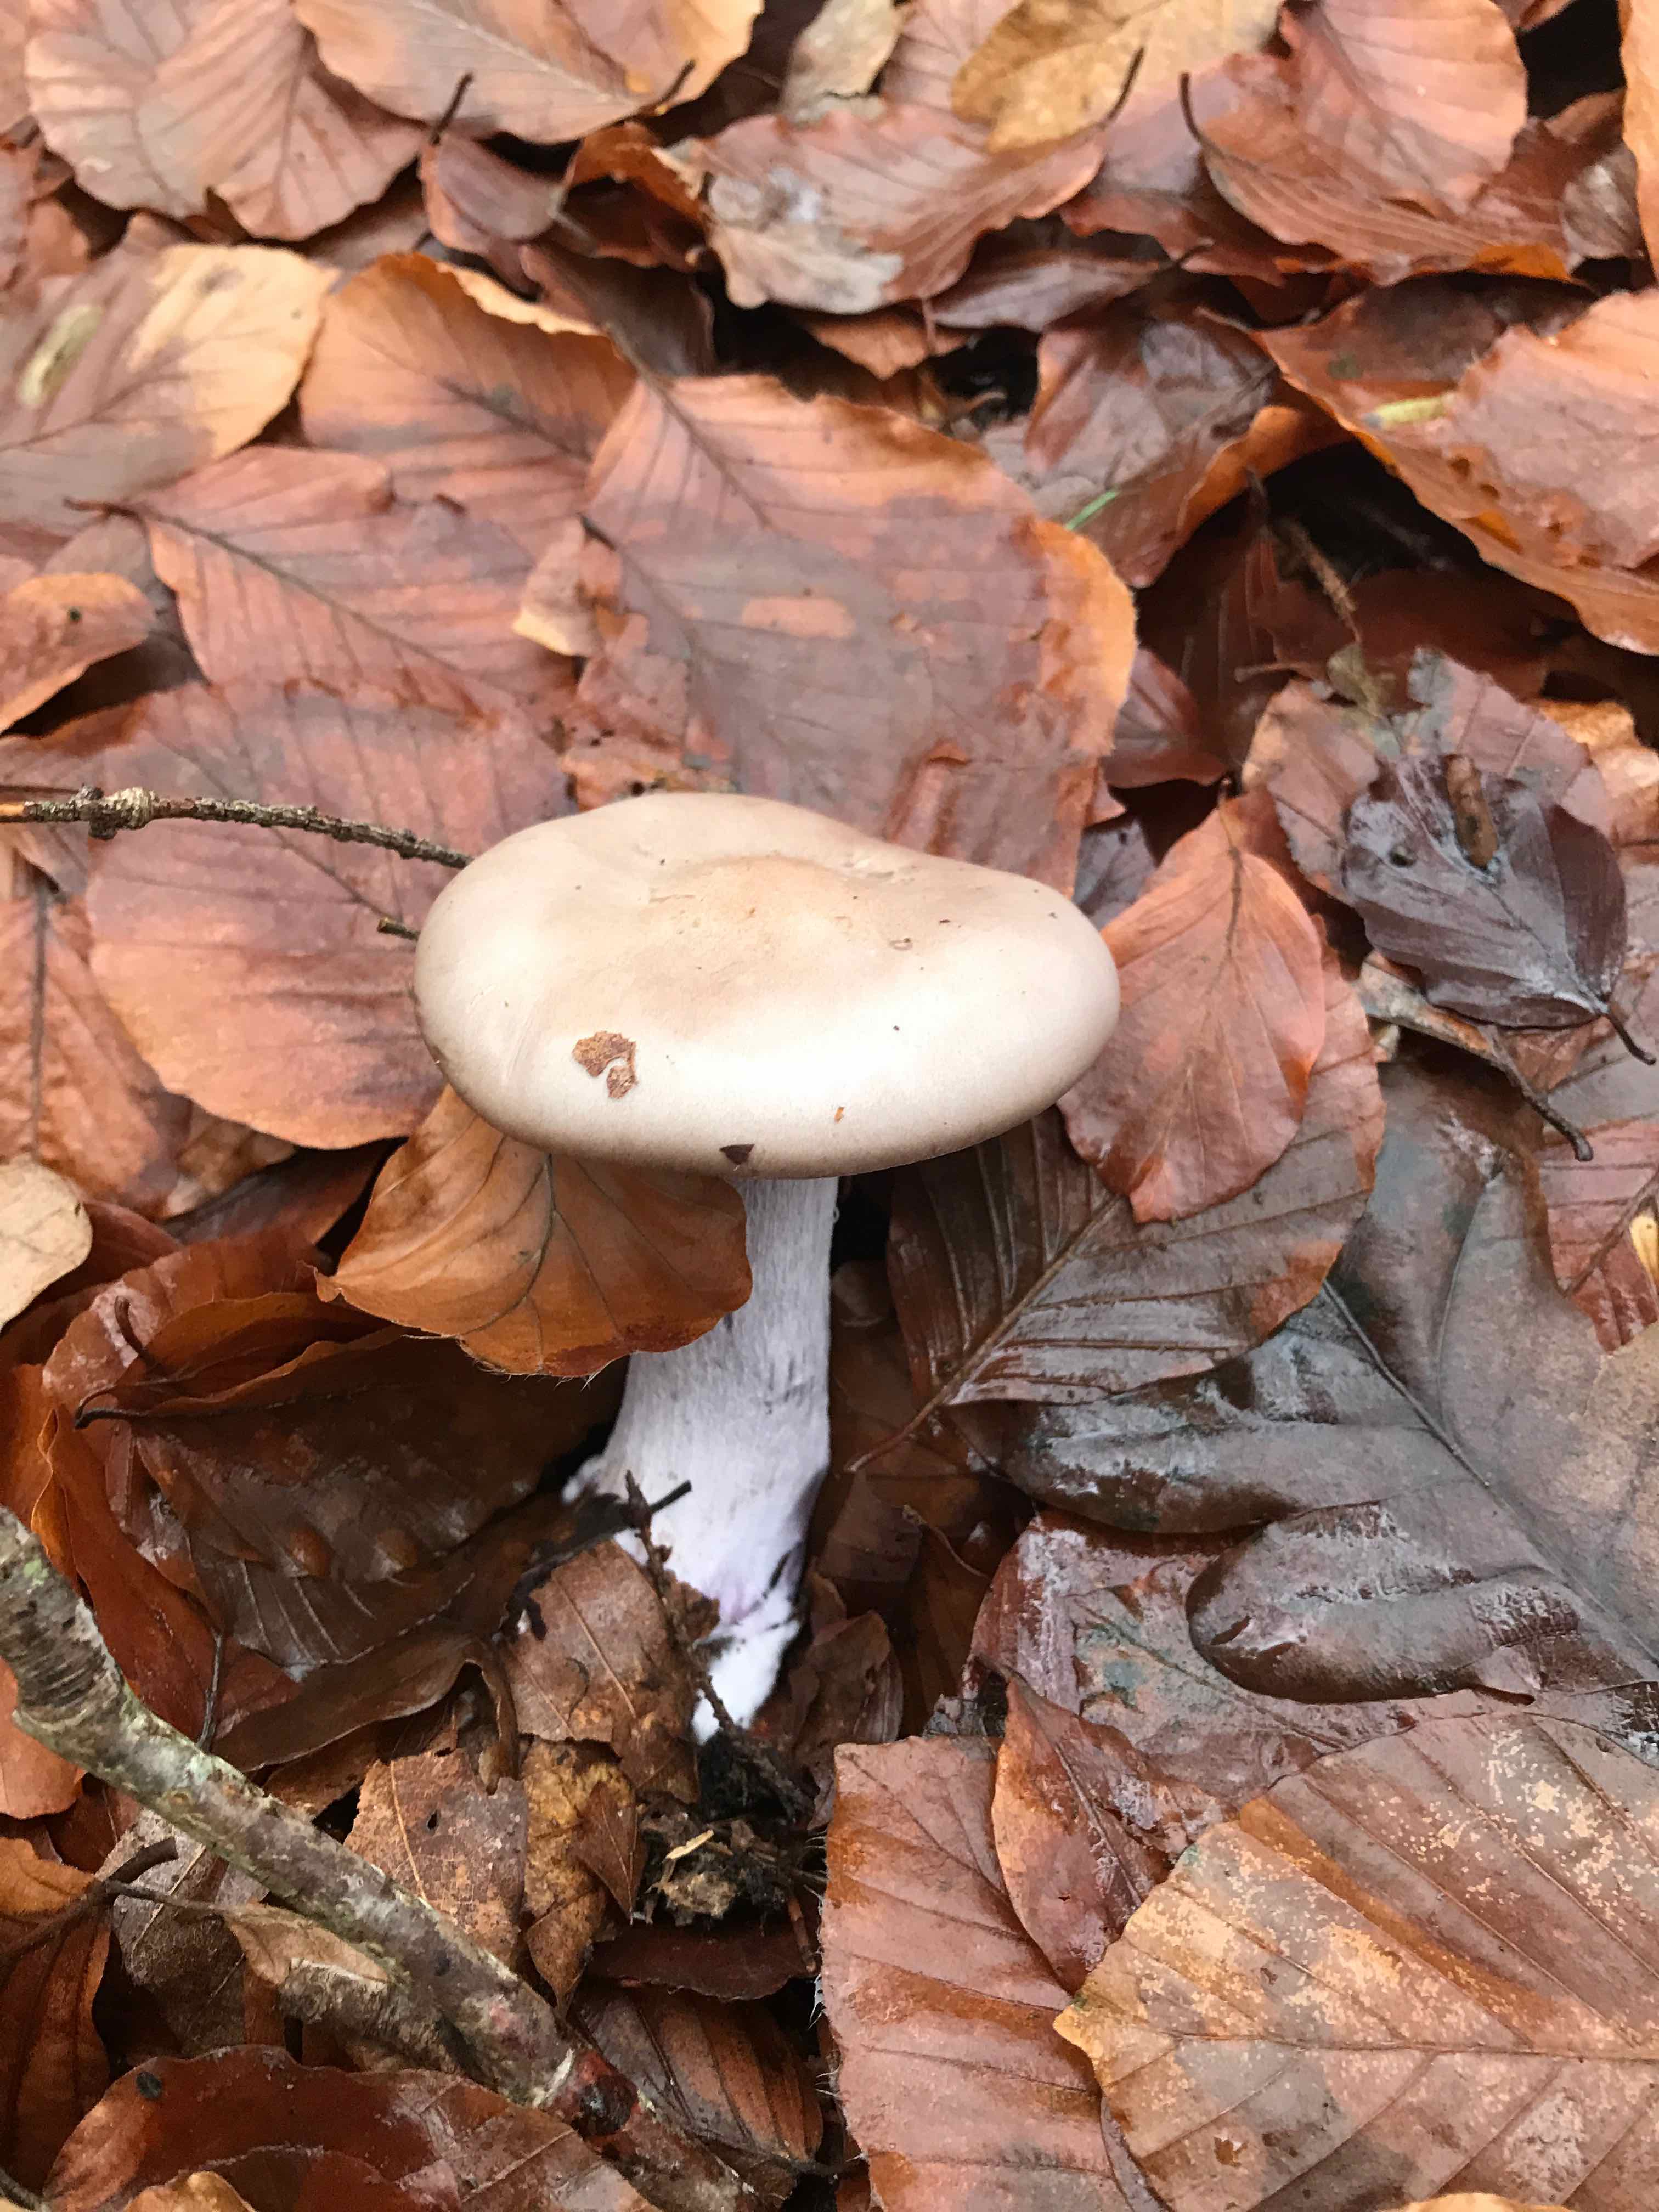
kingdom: Fungi
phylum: Basidiomycota
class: Agaricomycetes
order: Agaricales
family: Tricholomataceae
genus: Lepista
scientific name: Lepista nuda
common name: violet hekseringshat
